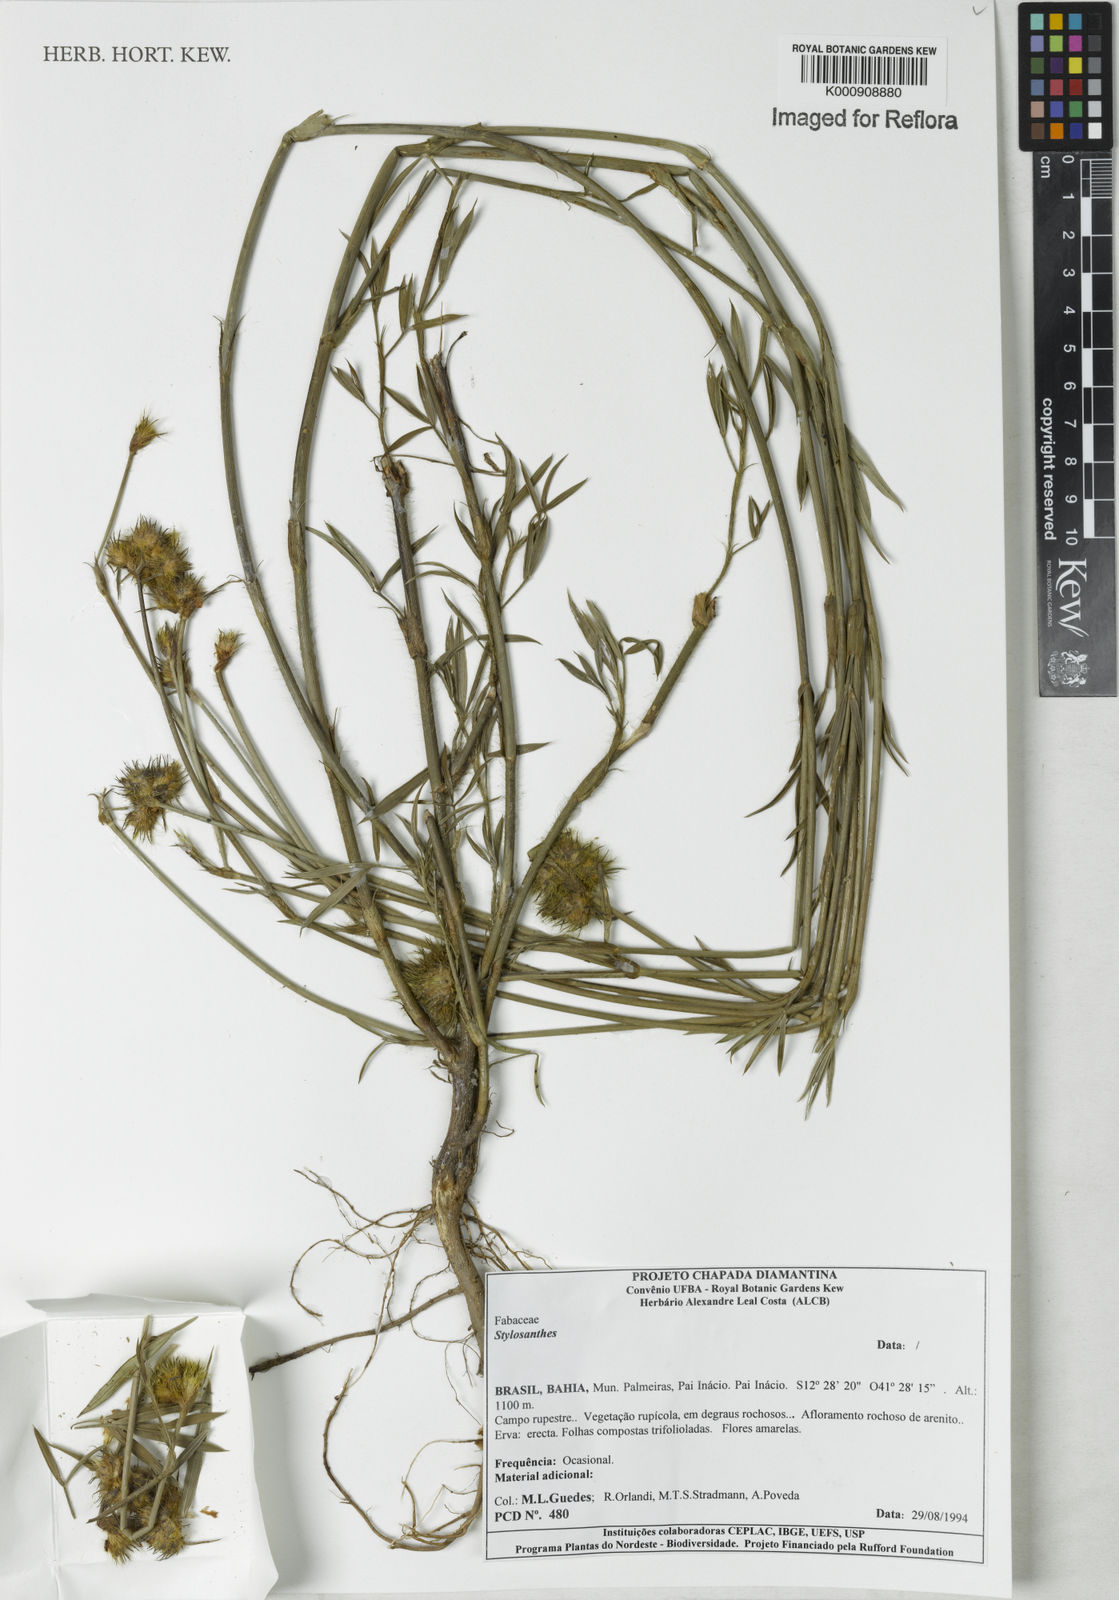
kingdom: Plantae
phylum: Tracheophyta
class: Magnoliopsida
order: Fabales
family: Fabaceae
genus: Stylosanthes
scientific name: Stylosanthes
